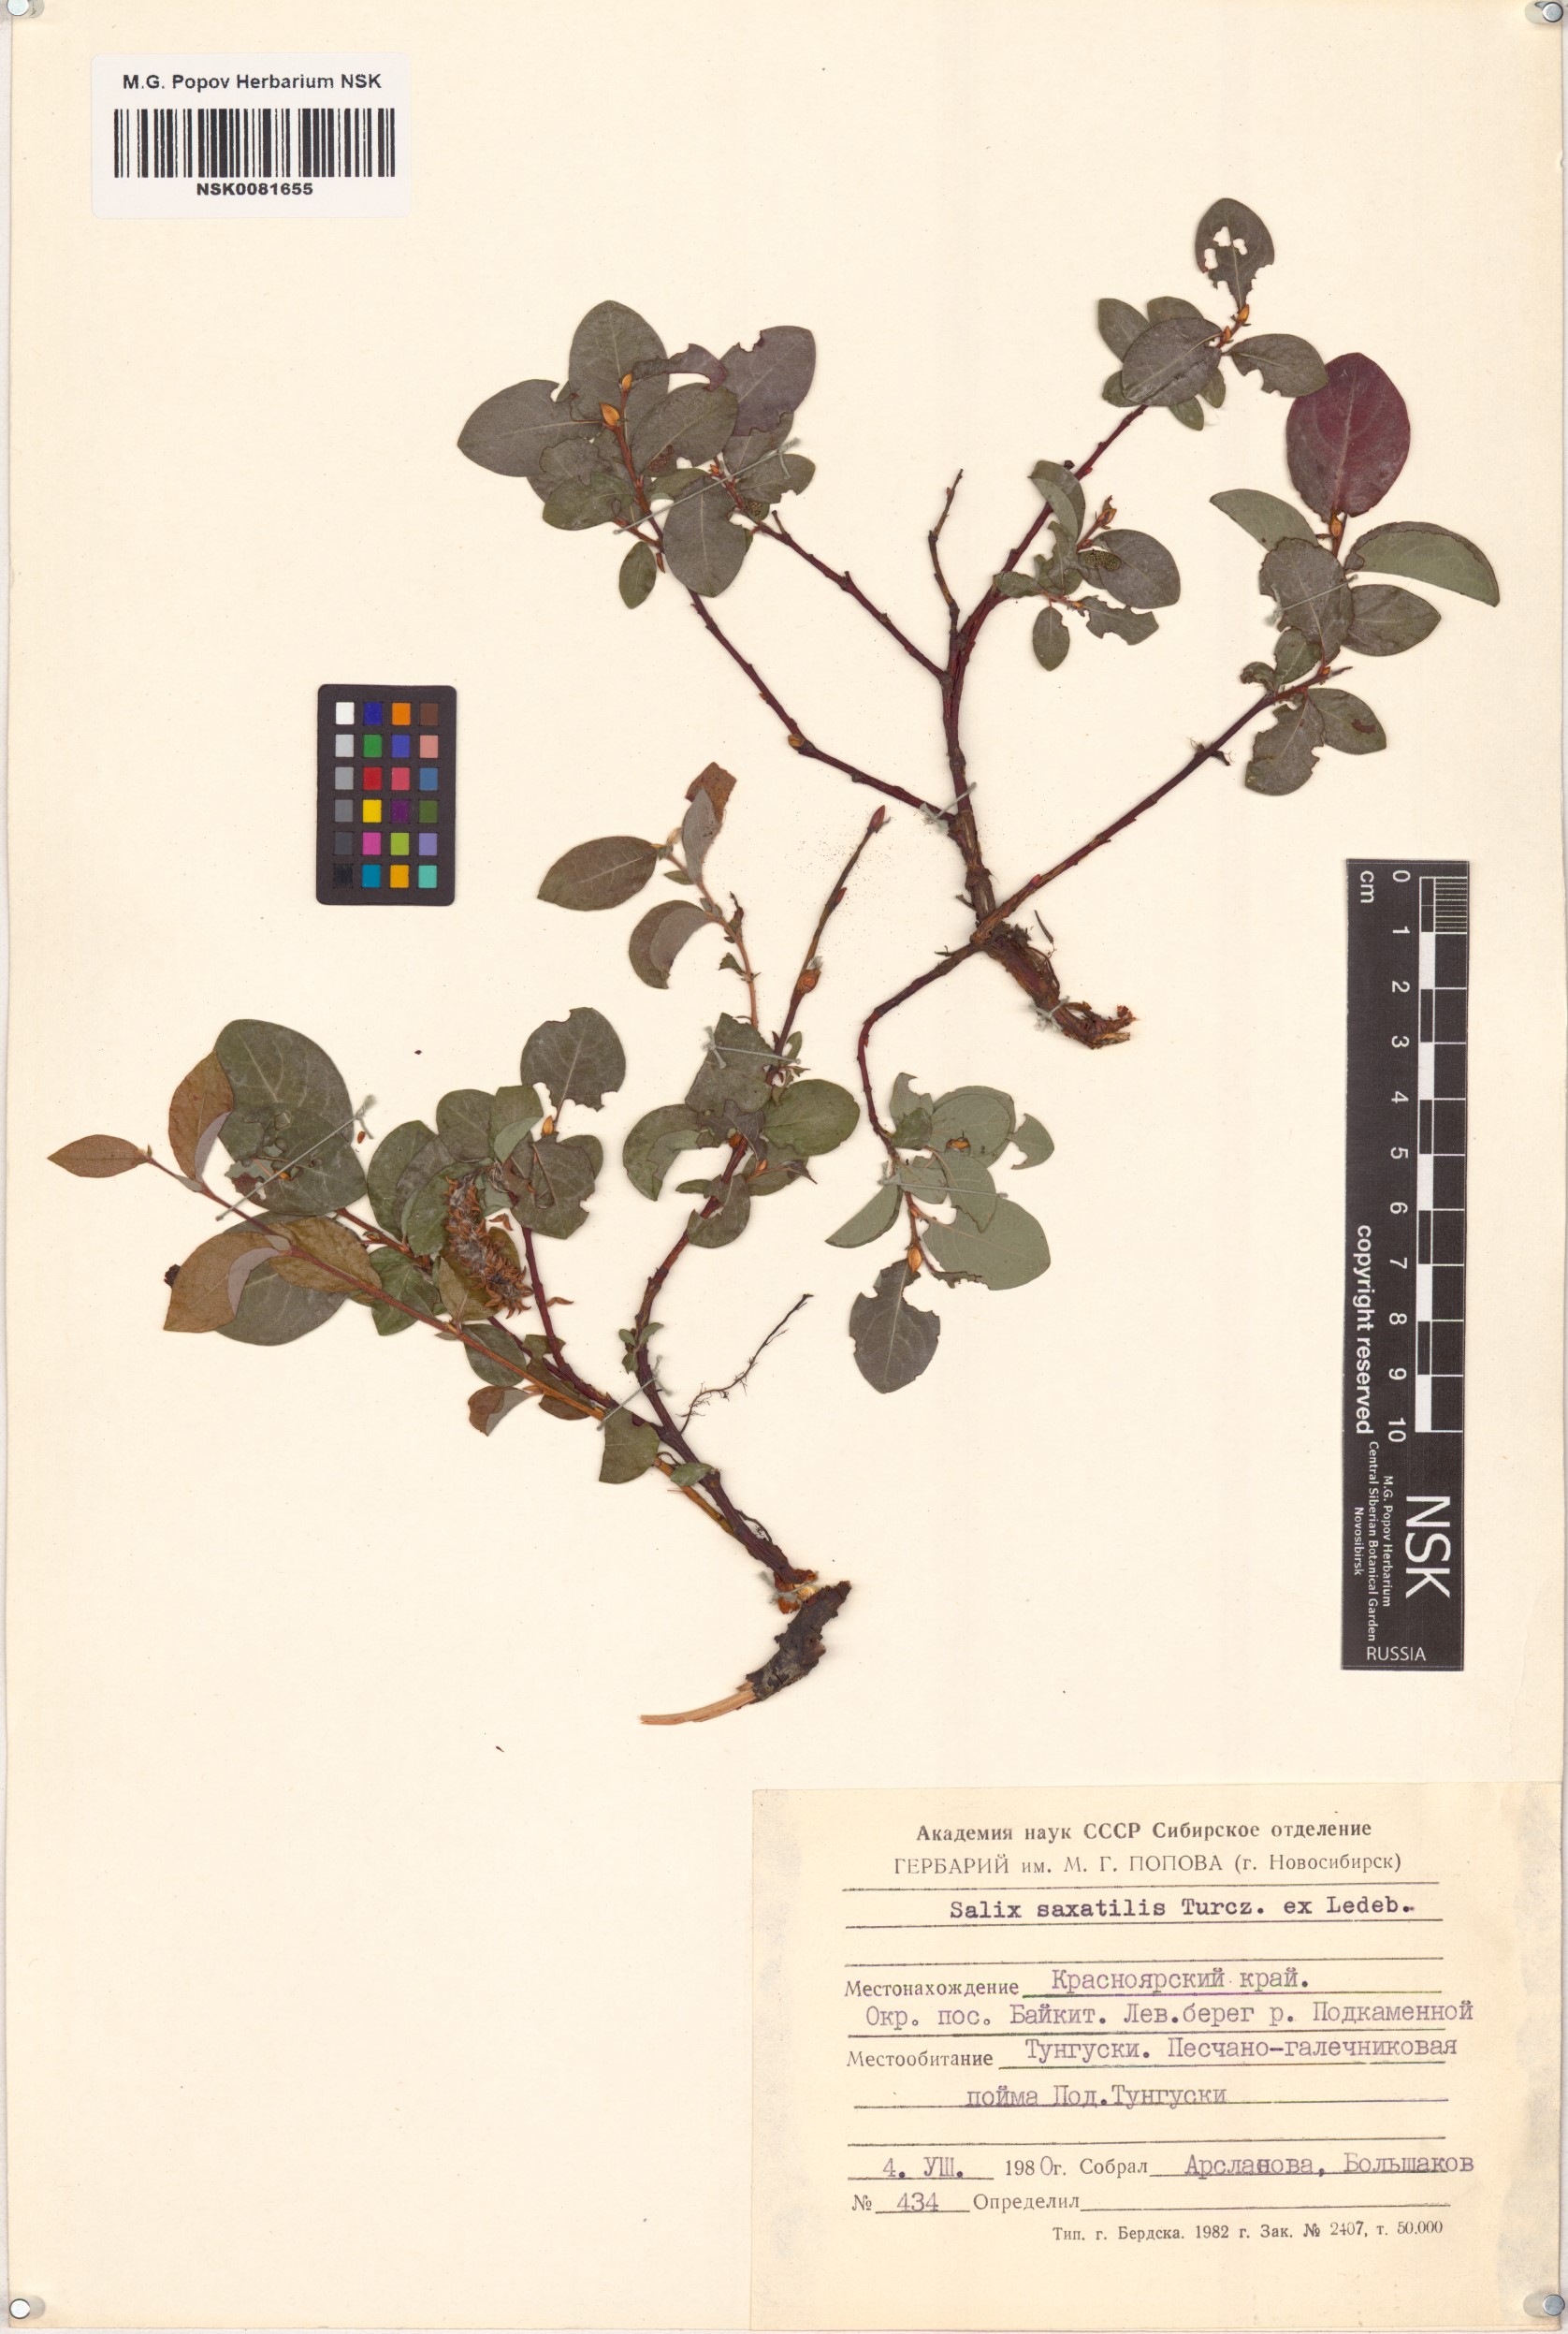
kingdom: Plantae
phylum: Tracheophyta
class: Magnoliopsida
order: Malpighiales
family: Salicaceae
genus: Salix
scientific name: Salix saxatilis
